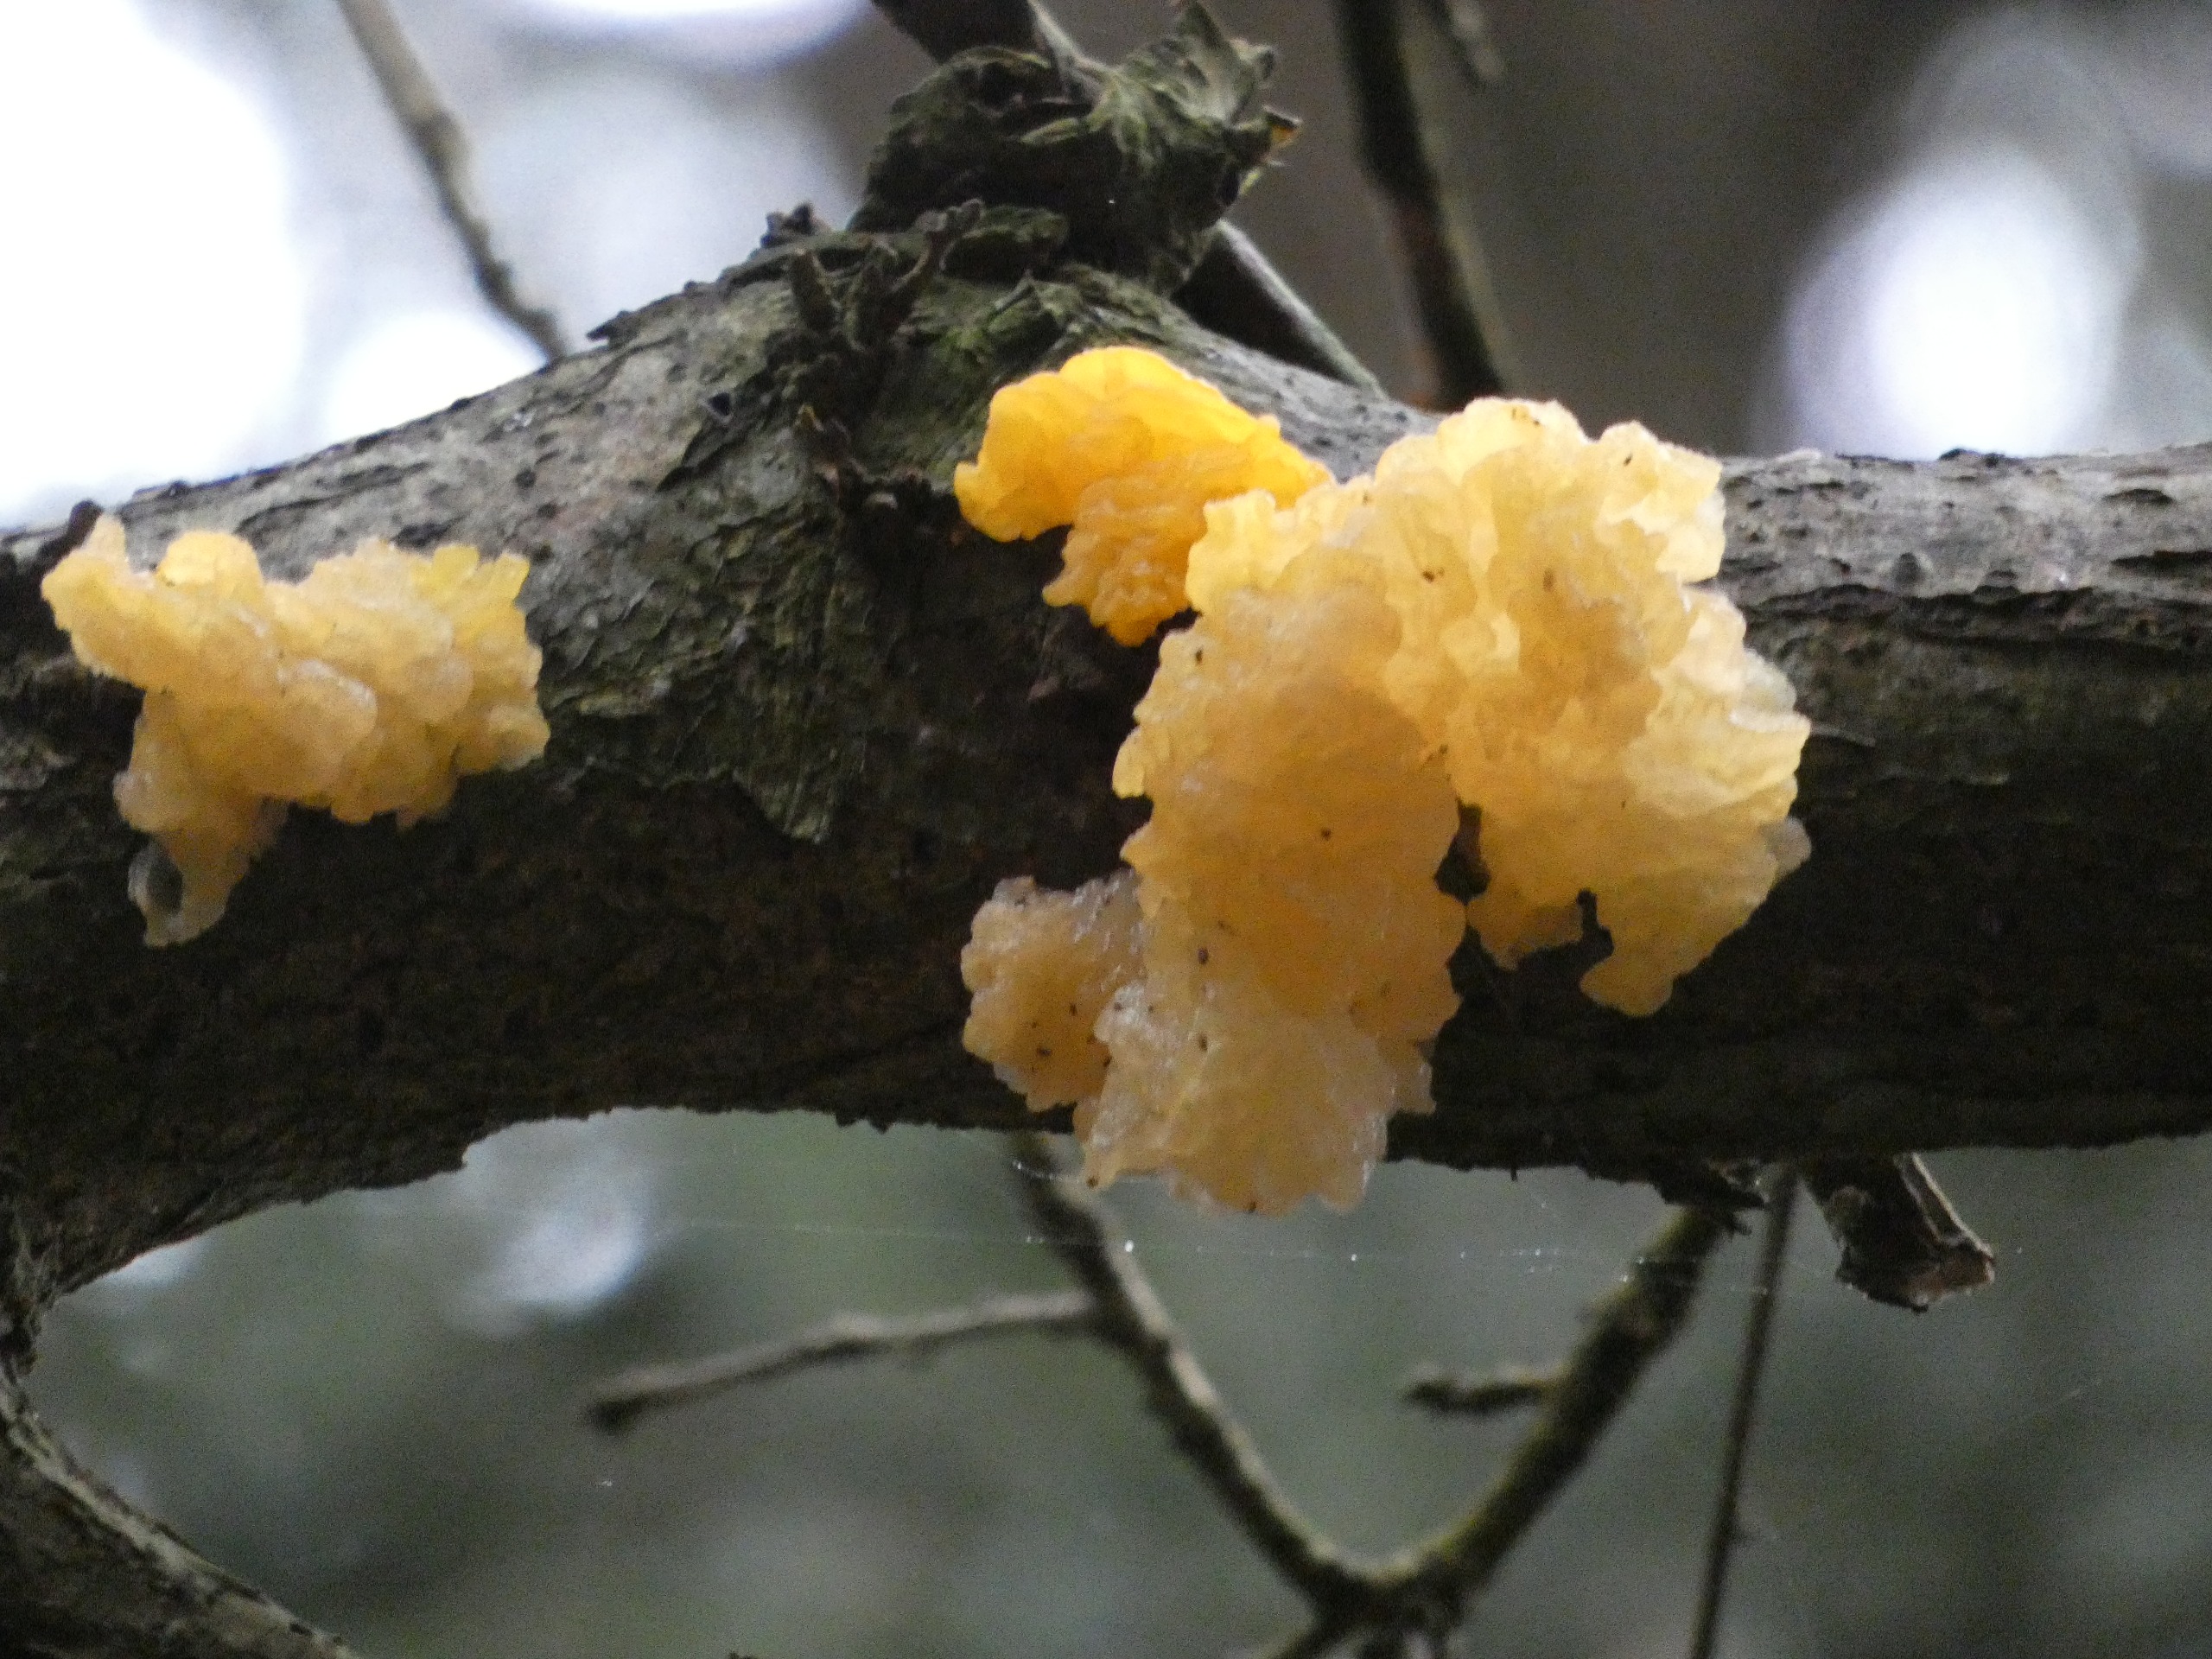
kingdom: Fungi
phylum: Basidiomycota
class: Tremellomycetes
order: Tremellales
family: Tremellaceae
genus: Tremella
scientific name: Tremella mesenterica
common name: Gul bævresvamp
